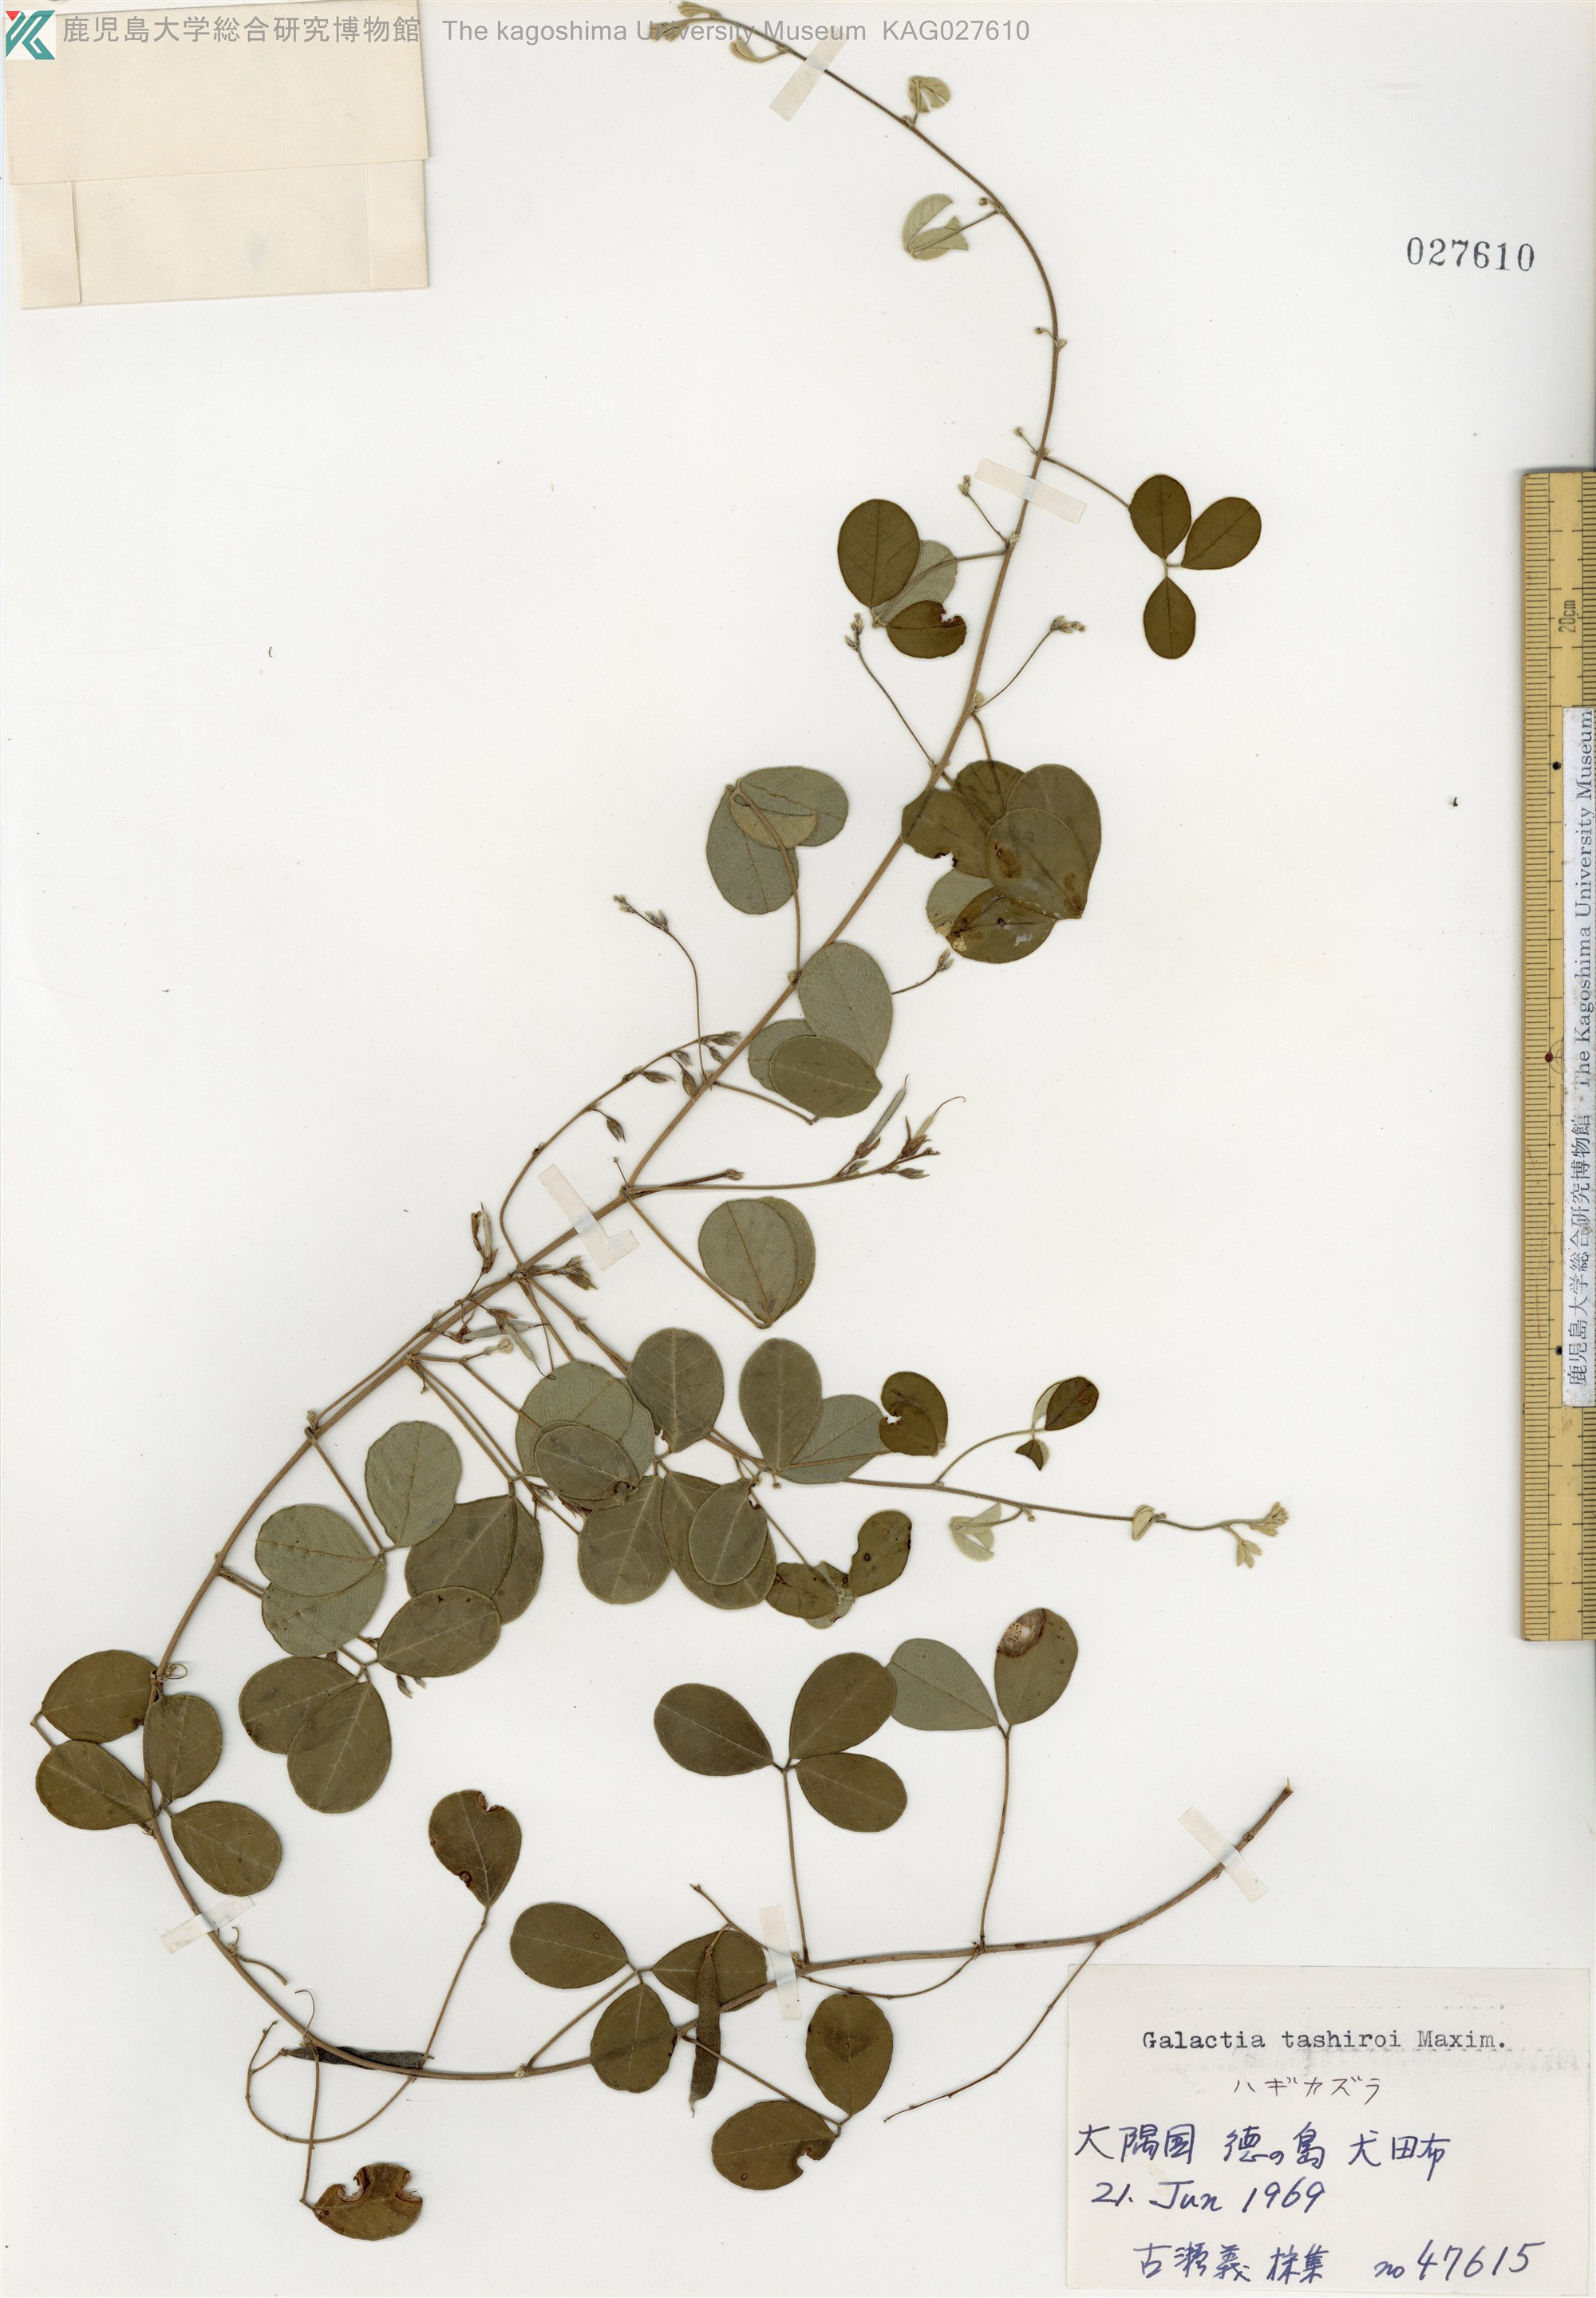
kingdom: Plantae
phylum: Tracheophyta
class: Magnoliopsida
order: Fabales
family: Fabaceae
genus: Galactia
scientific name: Galactia tashiroi
